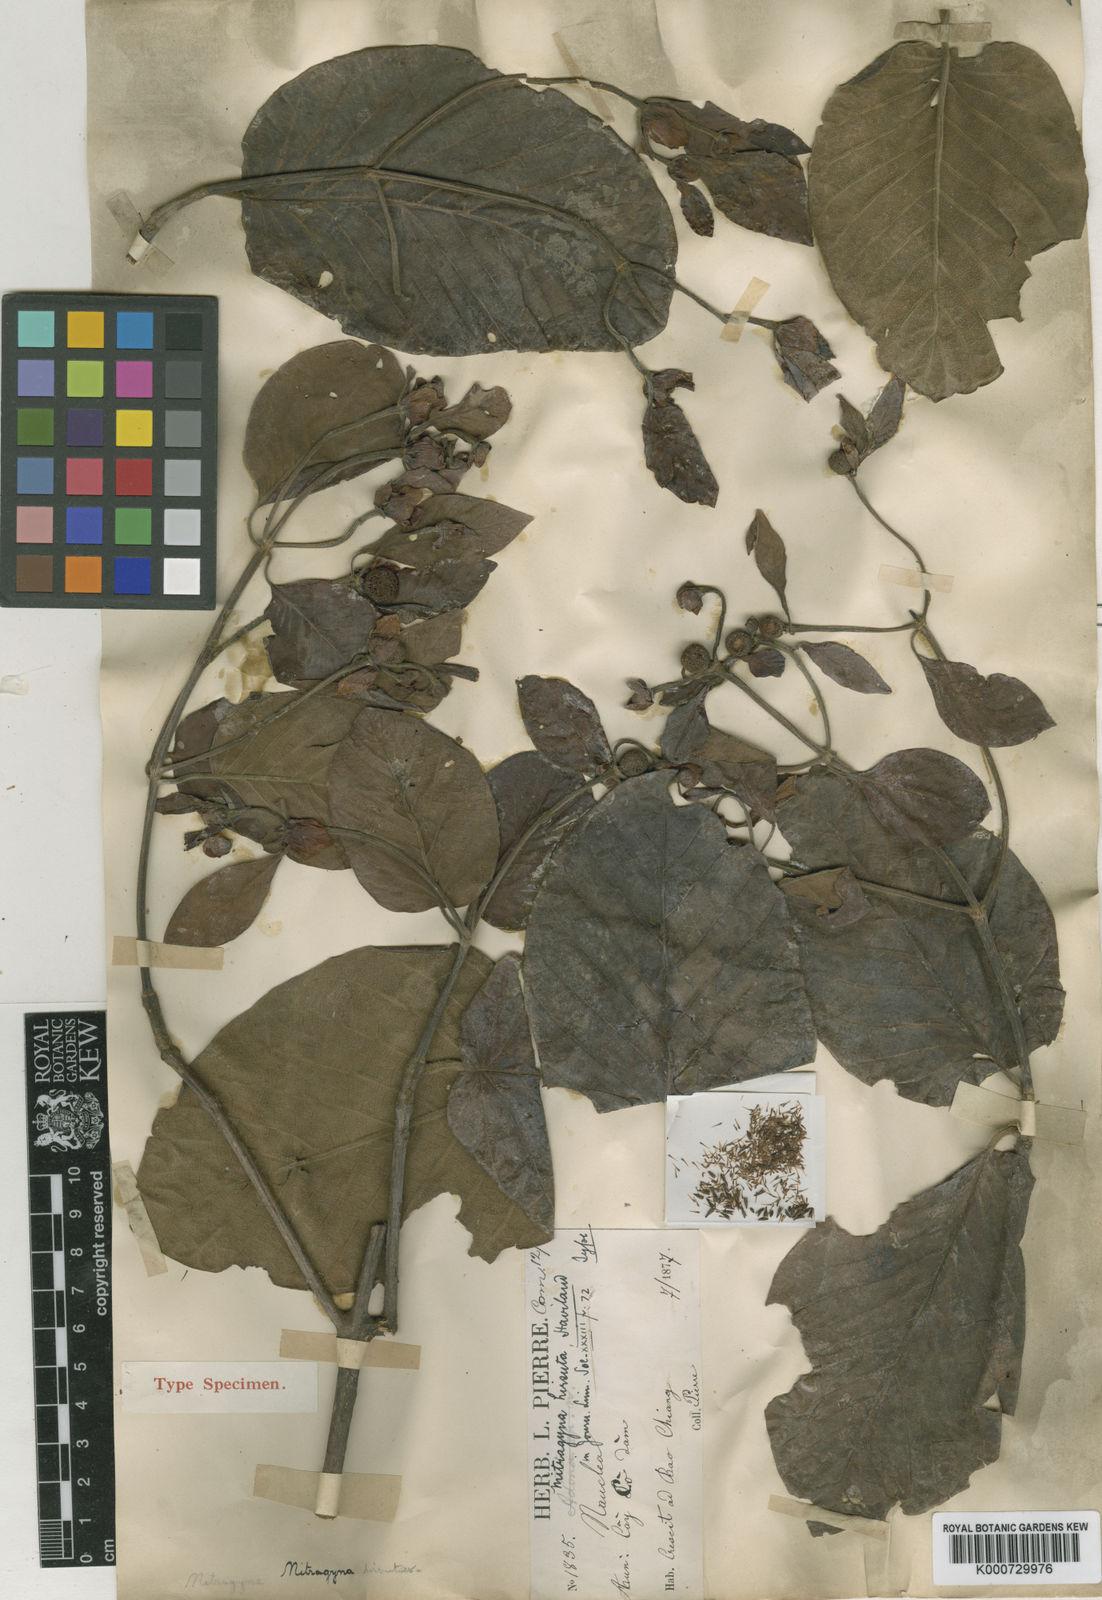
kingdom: Plantae
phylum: Tracheophyta
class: Magnoliopsida
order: Gentianales
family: Rubiaceae
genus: Mitragyna
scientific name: Mitragyna hirsuta
